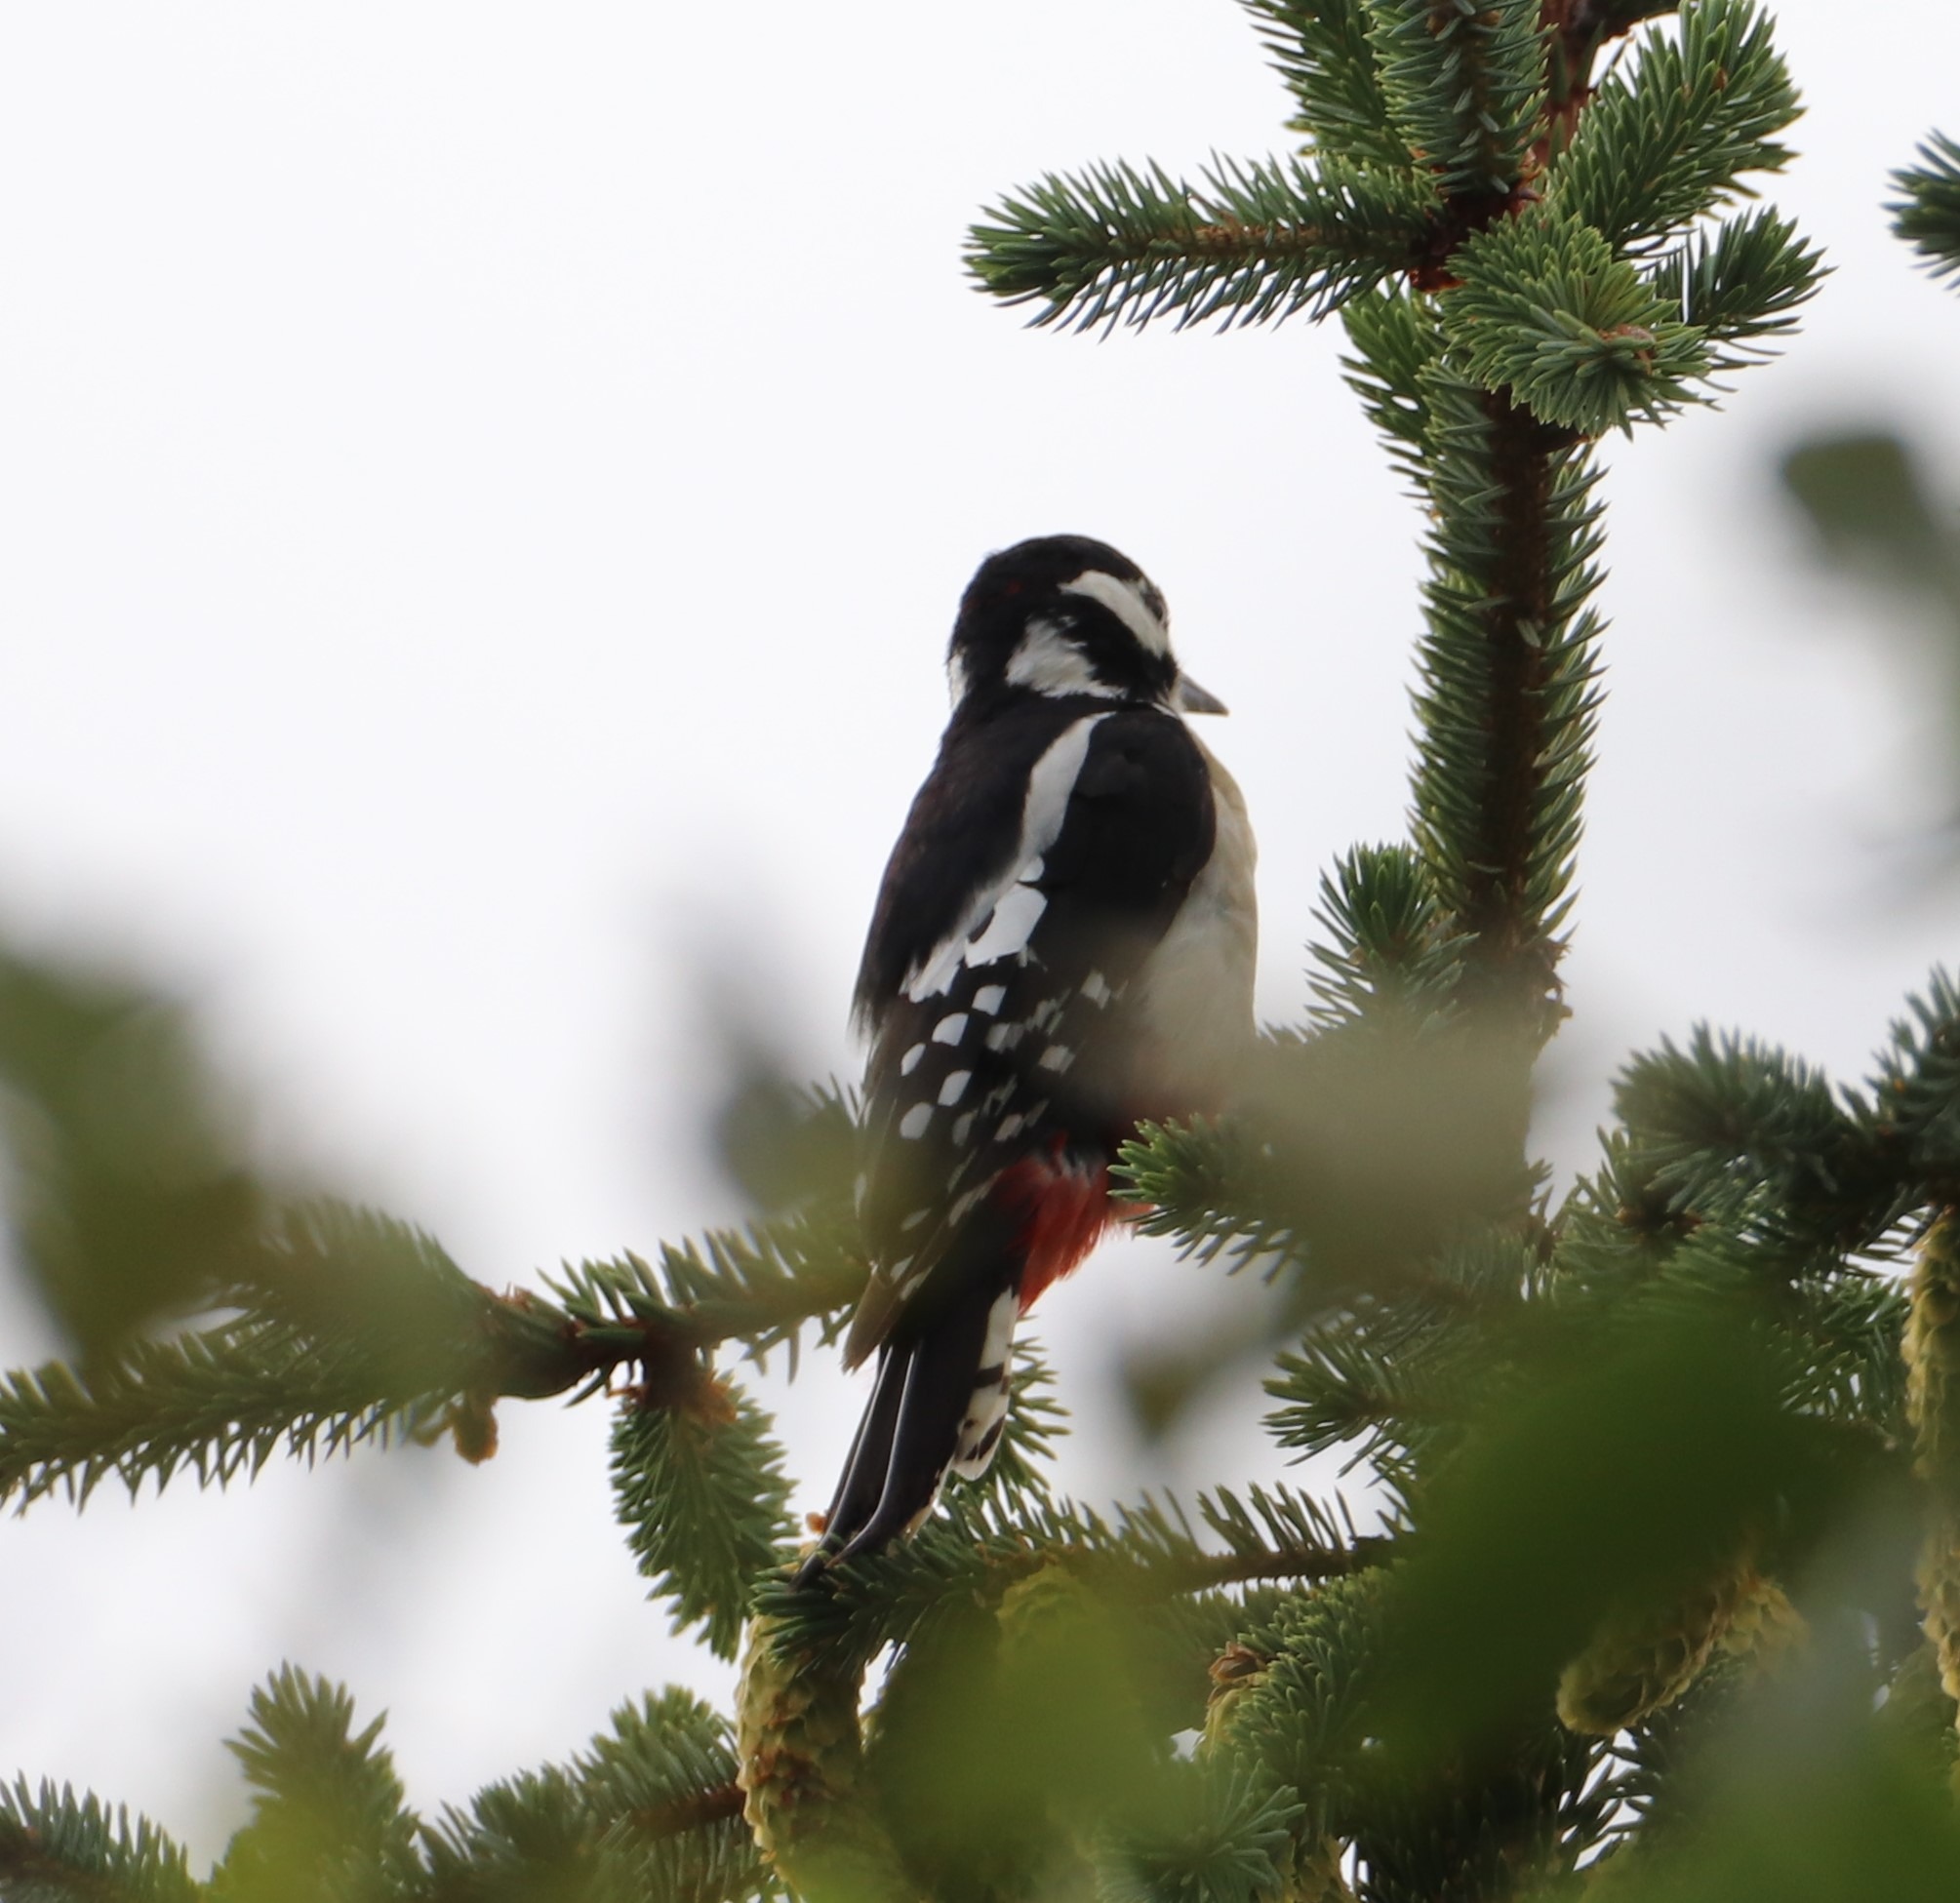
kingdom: Animalia
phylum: Chordata
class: Aves
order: Piciformes
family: Picidae
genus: Dendrocopos
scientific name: Dendrocopos major
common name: Stor flagspætte
